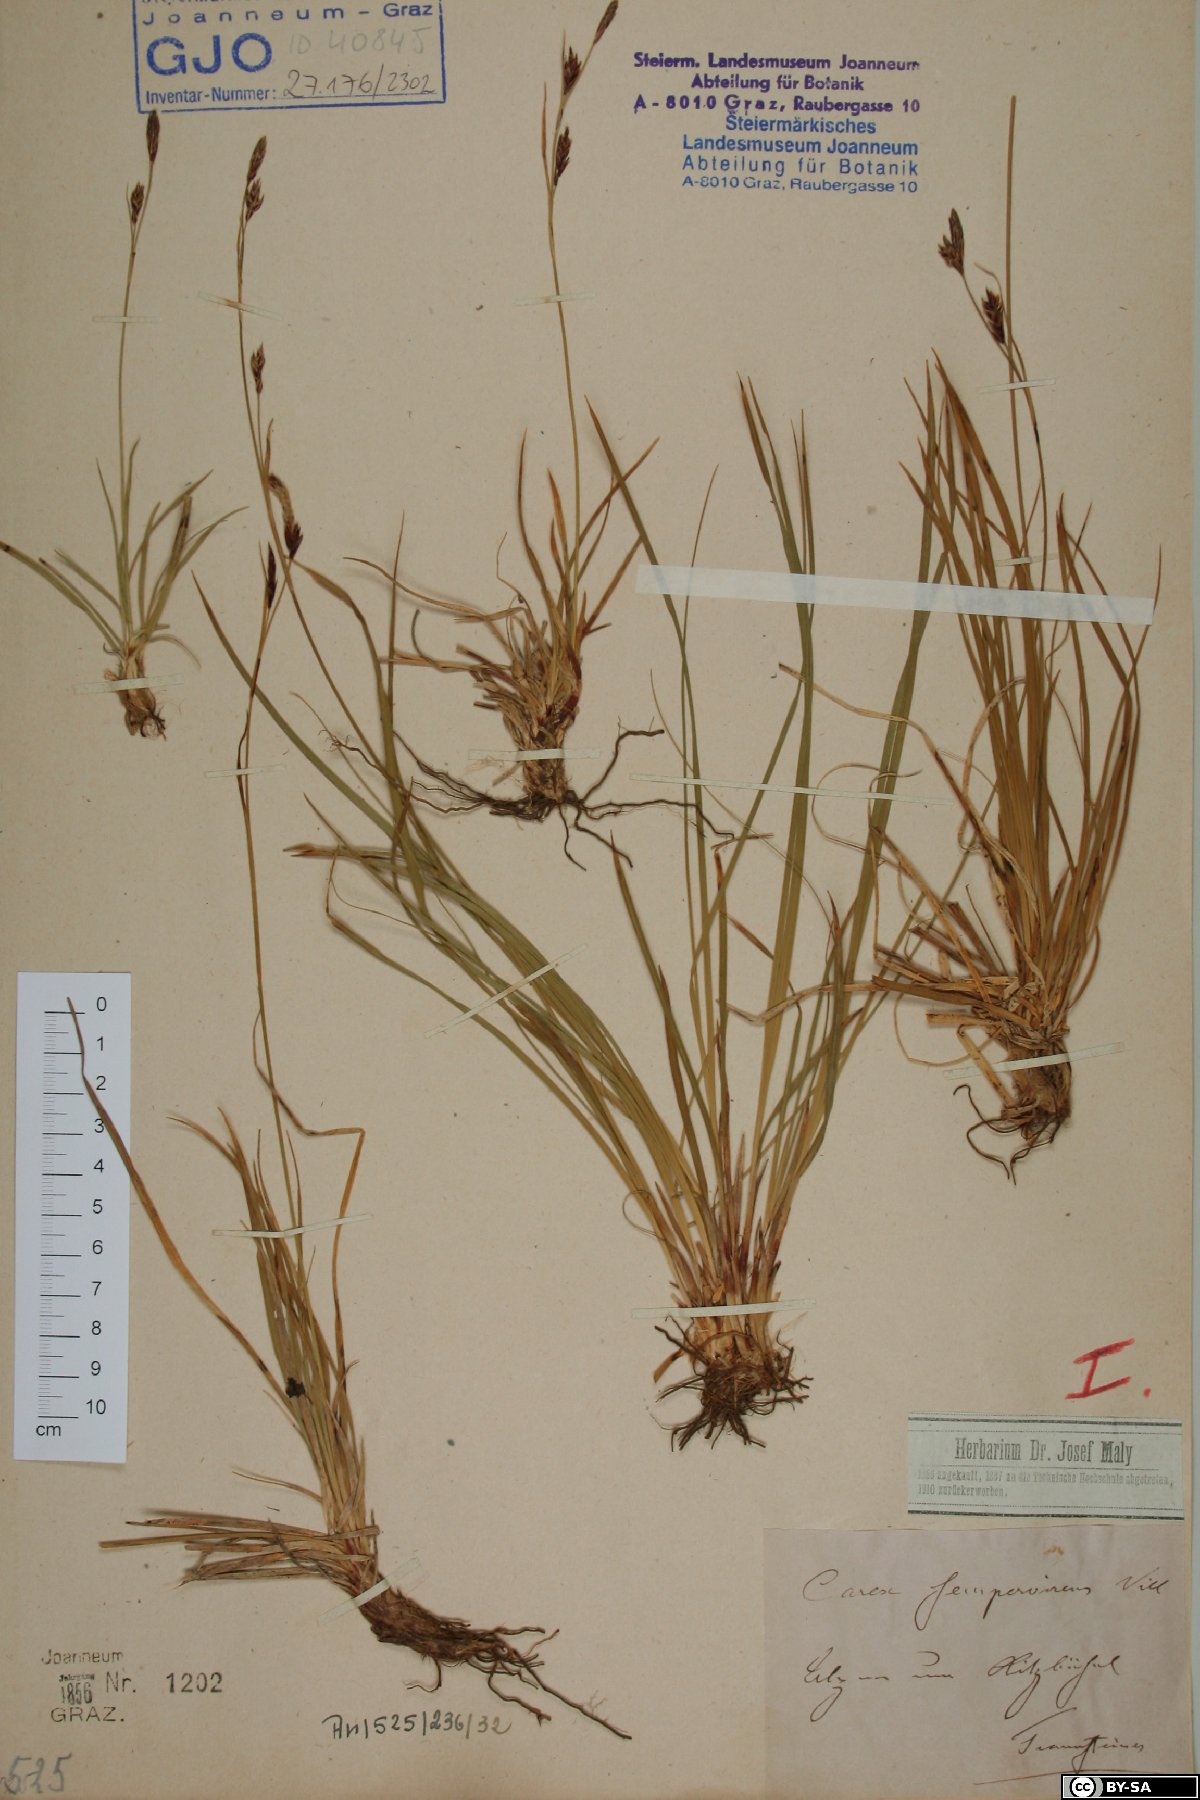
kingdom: Plantae
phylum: Tracheophyta
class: Liliopsida
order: Poales
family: Cyperaceae
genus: Carex
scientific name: Carex sempervirens
